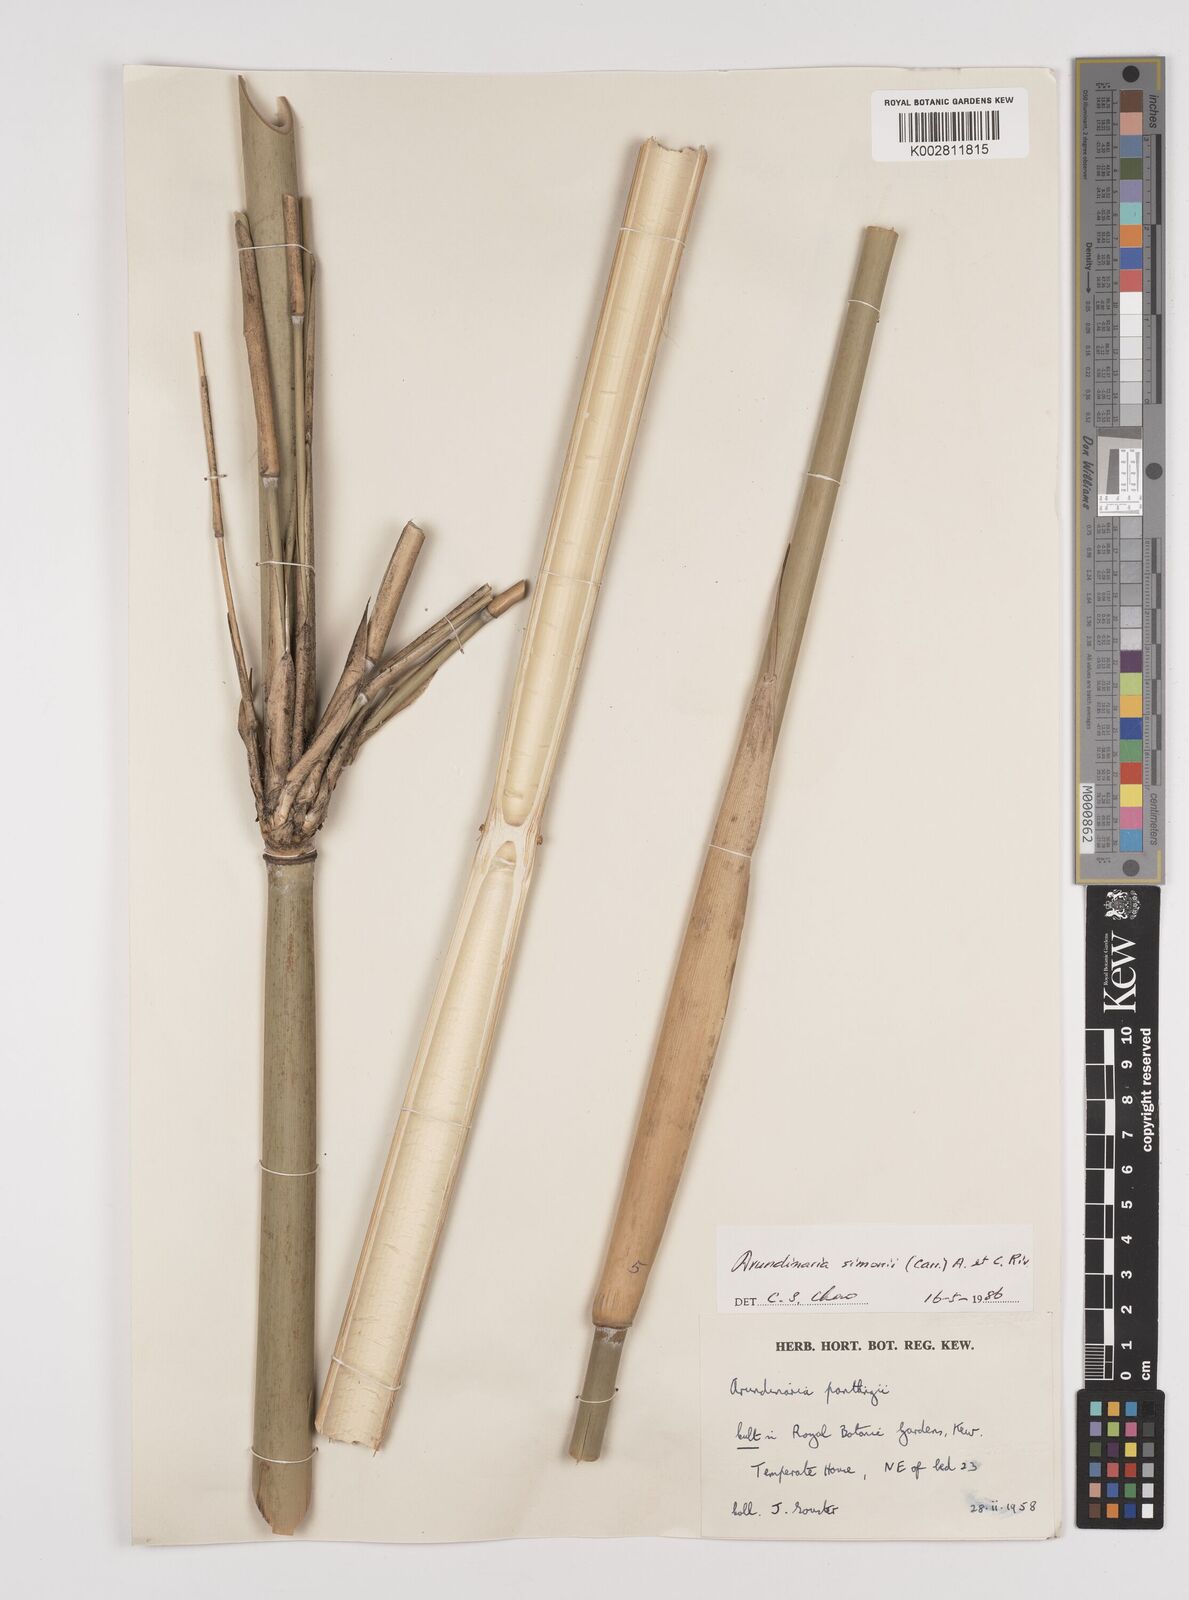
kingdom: Plantae
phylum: Tracheophyta
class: Liliopsida
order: Poales
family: Poaceae
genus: Pleioblastus
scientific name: Pleioblastus simonii
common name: Simon bamboo
